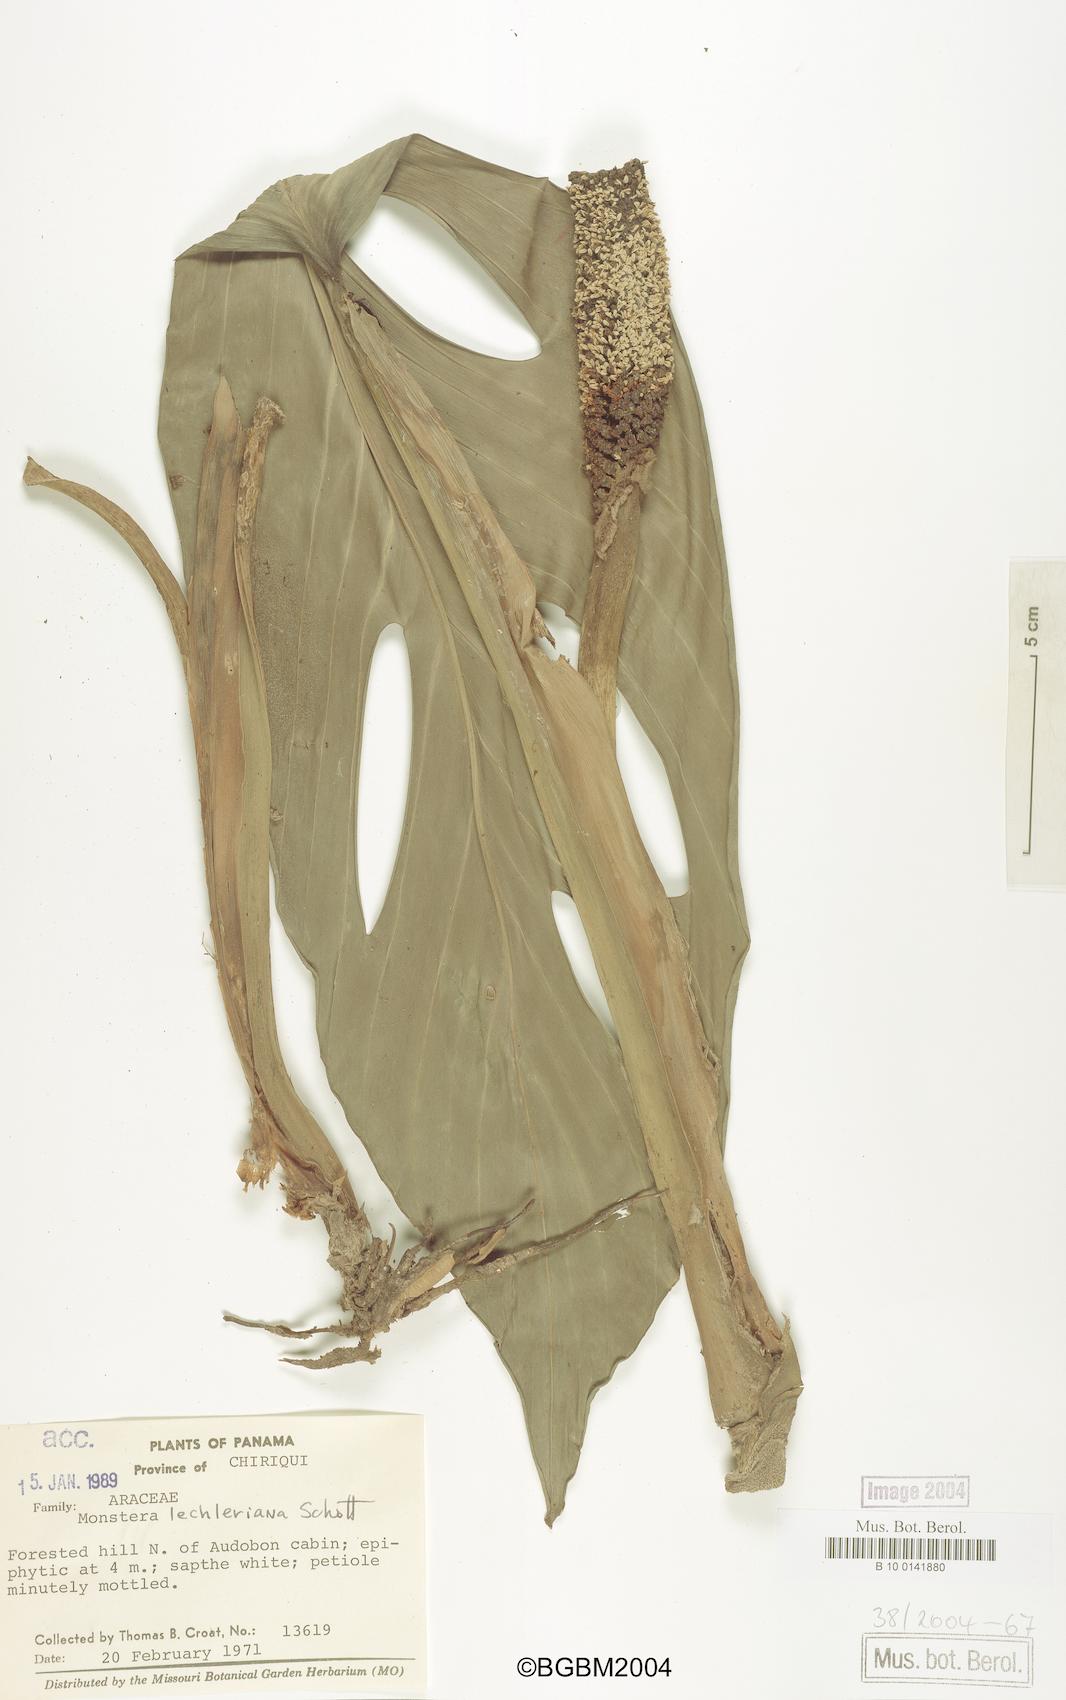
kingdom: Plantae
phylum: Tracheophyta
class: Liliopsida
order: Alismatales
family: Araceae
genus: Monstera
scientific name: Monstera lechleriana
